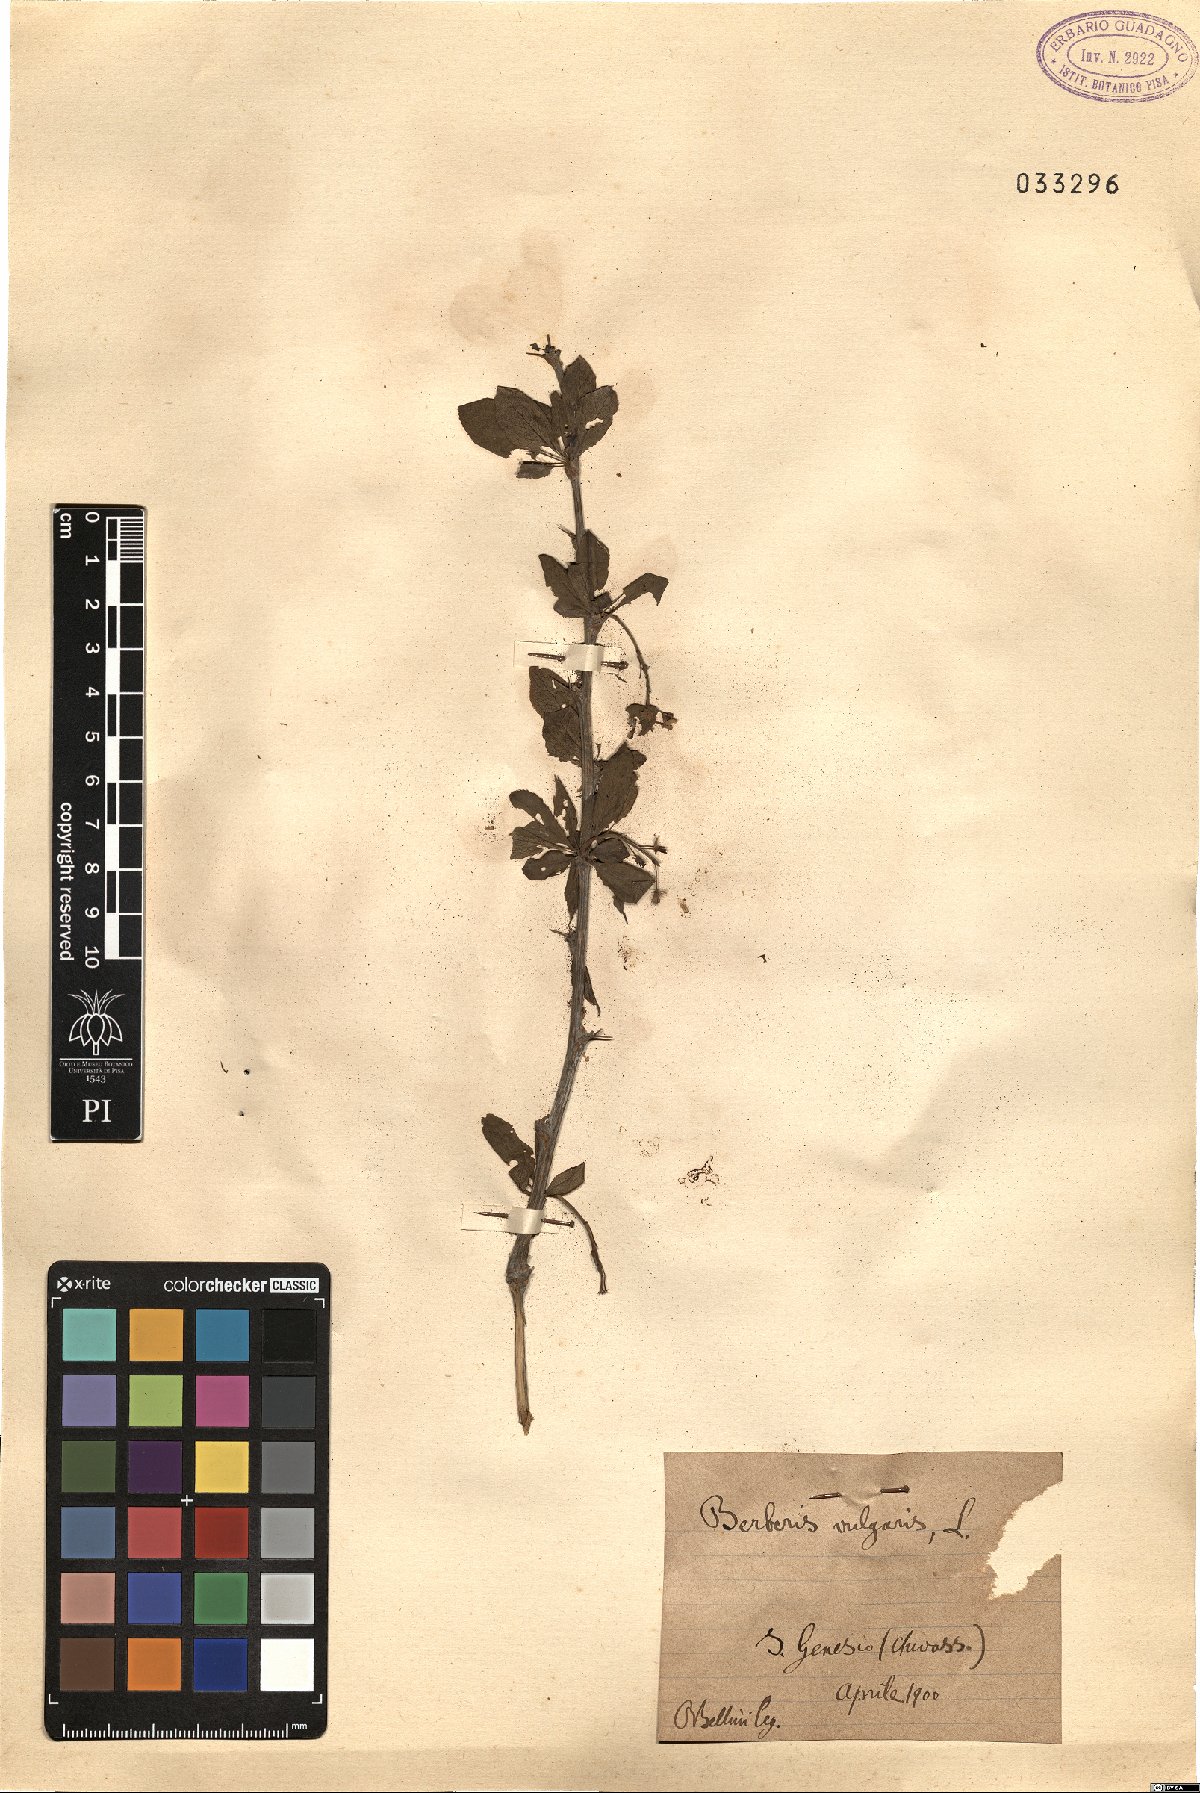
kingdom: Plantae
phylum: Tracheophyta
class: Magnoliopsida
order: Ranunculales
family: Berberidaceae
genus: Berberis
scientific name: Berberis vulgaris
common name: Barberry
